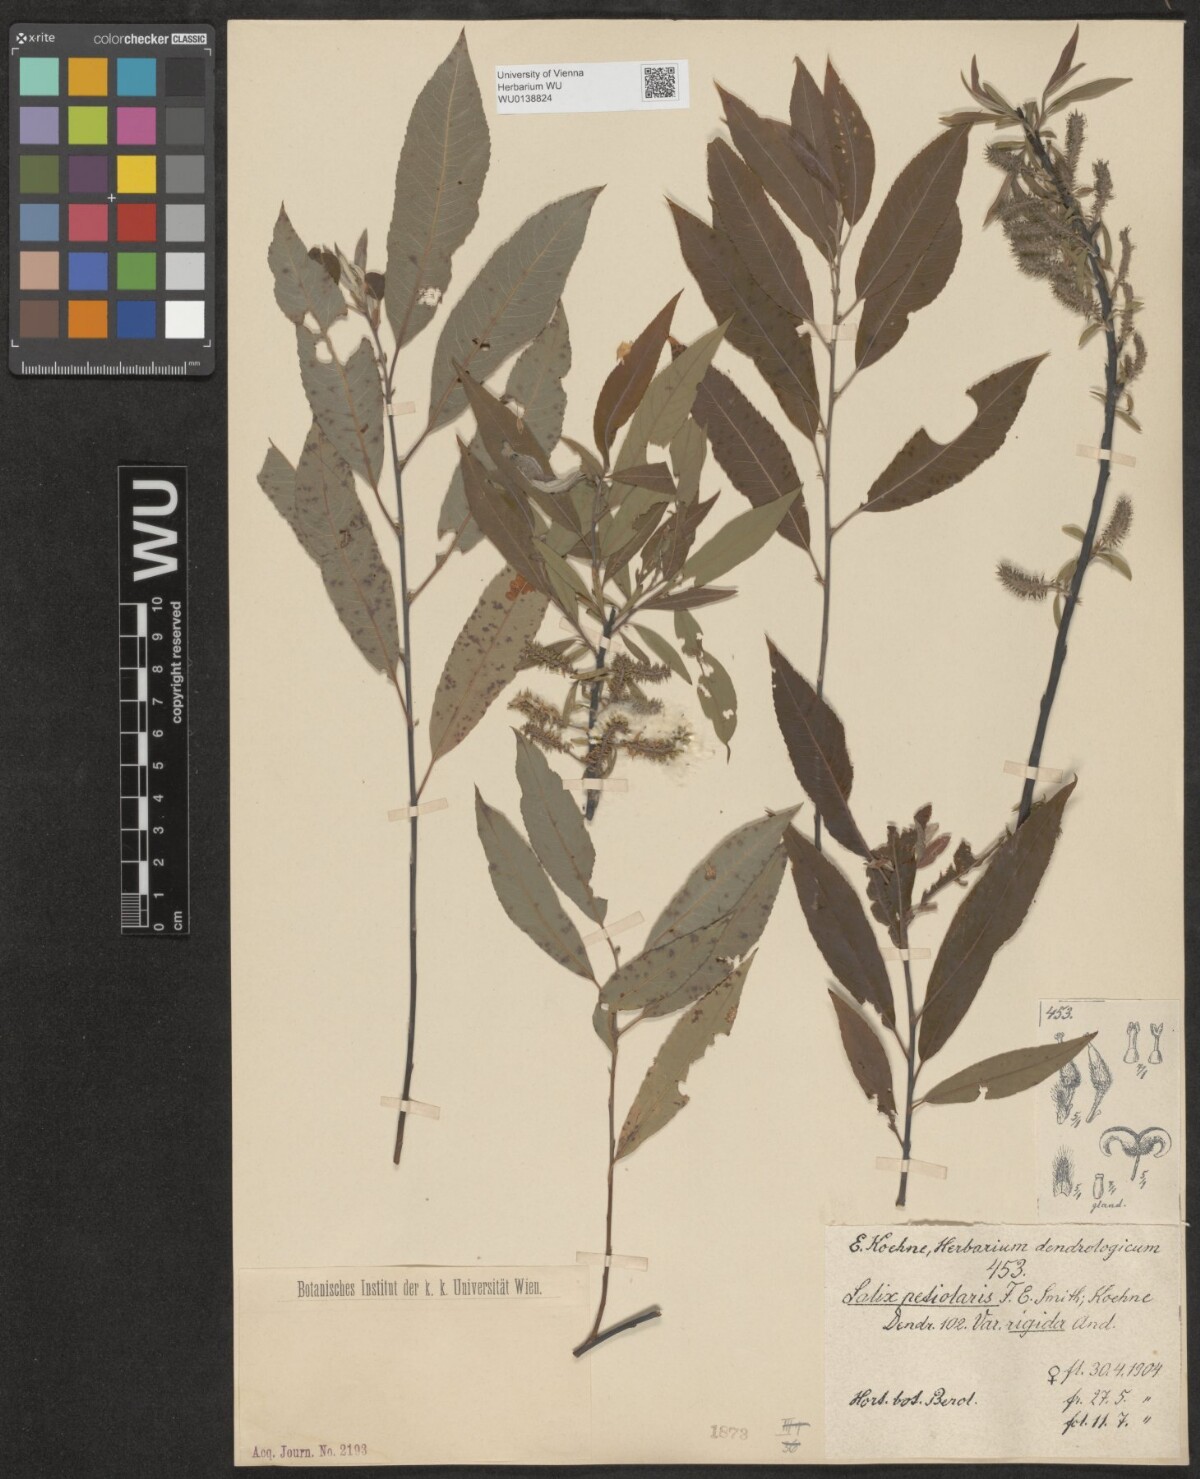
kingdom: Plantae
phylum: Tracheophyta
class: Magnoliopsida
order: Malpighiales
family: Salicaceae
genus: Salix
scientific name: Salix petiolaris
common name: Slender willow
